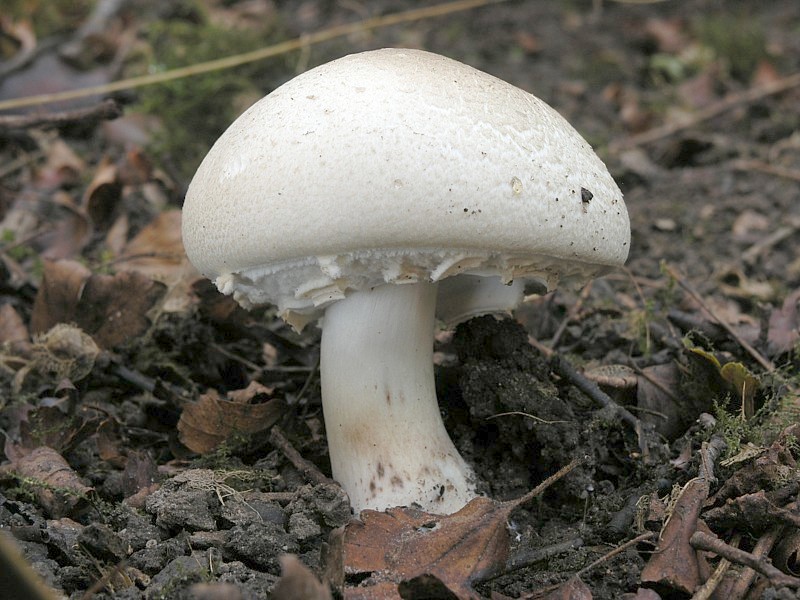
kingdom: Fungi
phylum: Basidiomycota
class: Agaricomycetes
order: Agaricales
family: Agaricaceae
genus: Agaricus
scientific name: Agaricus xanthodermus
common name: Yellow stainer
